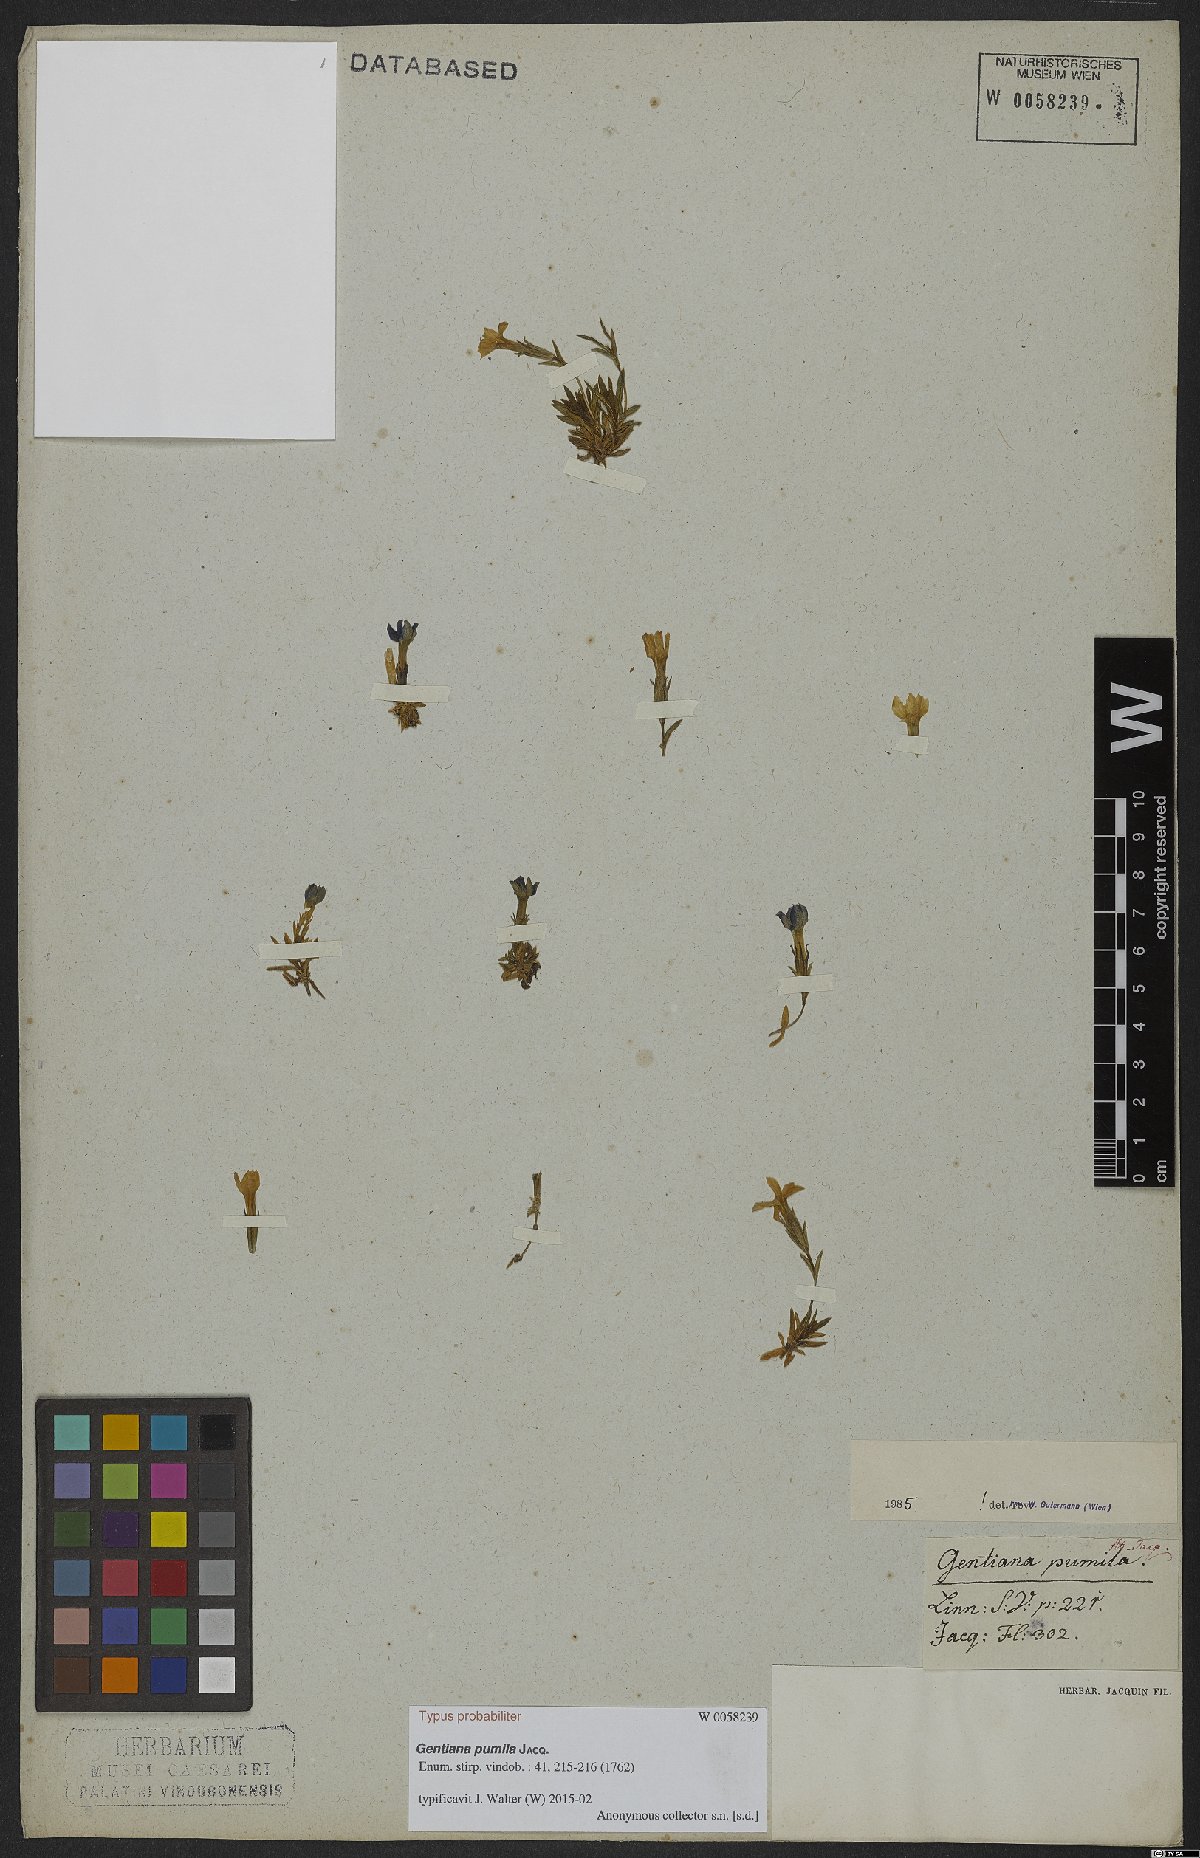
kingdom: Plantae
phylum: Tracheophyta
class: Magnoliopsida
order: Gentianales
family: Gentianaceae
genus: Gentiana
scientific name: Gentiana pumila
